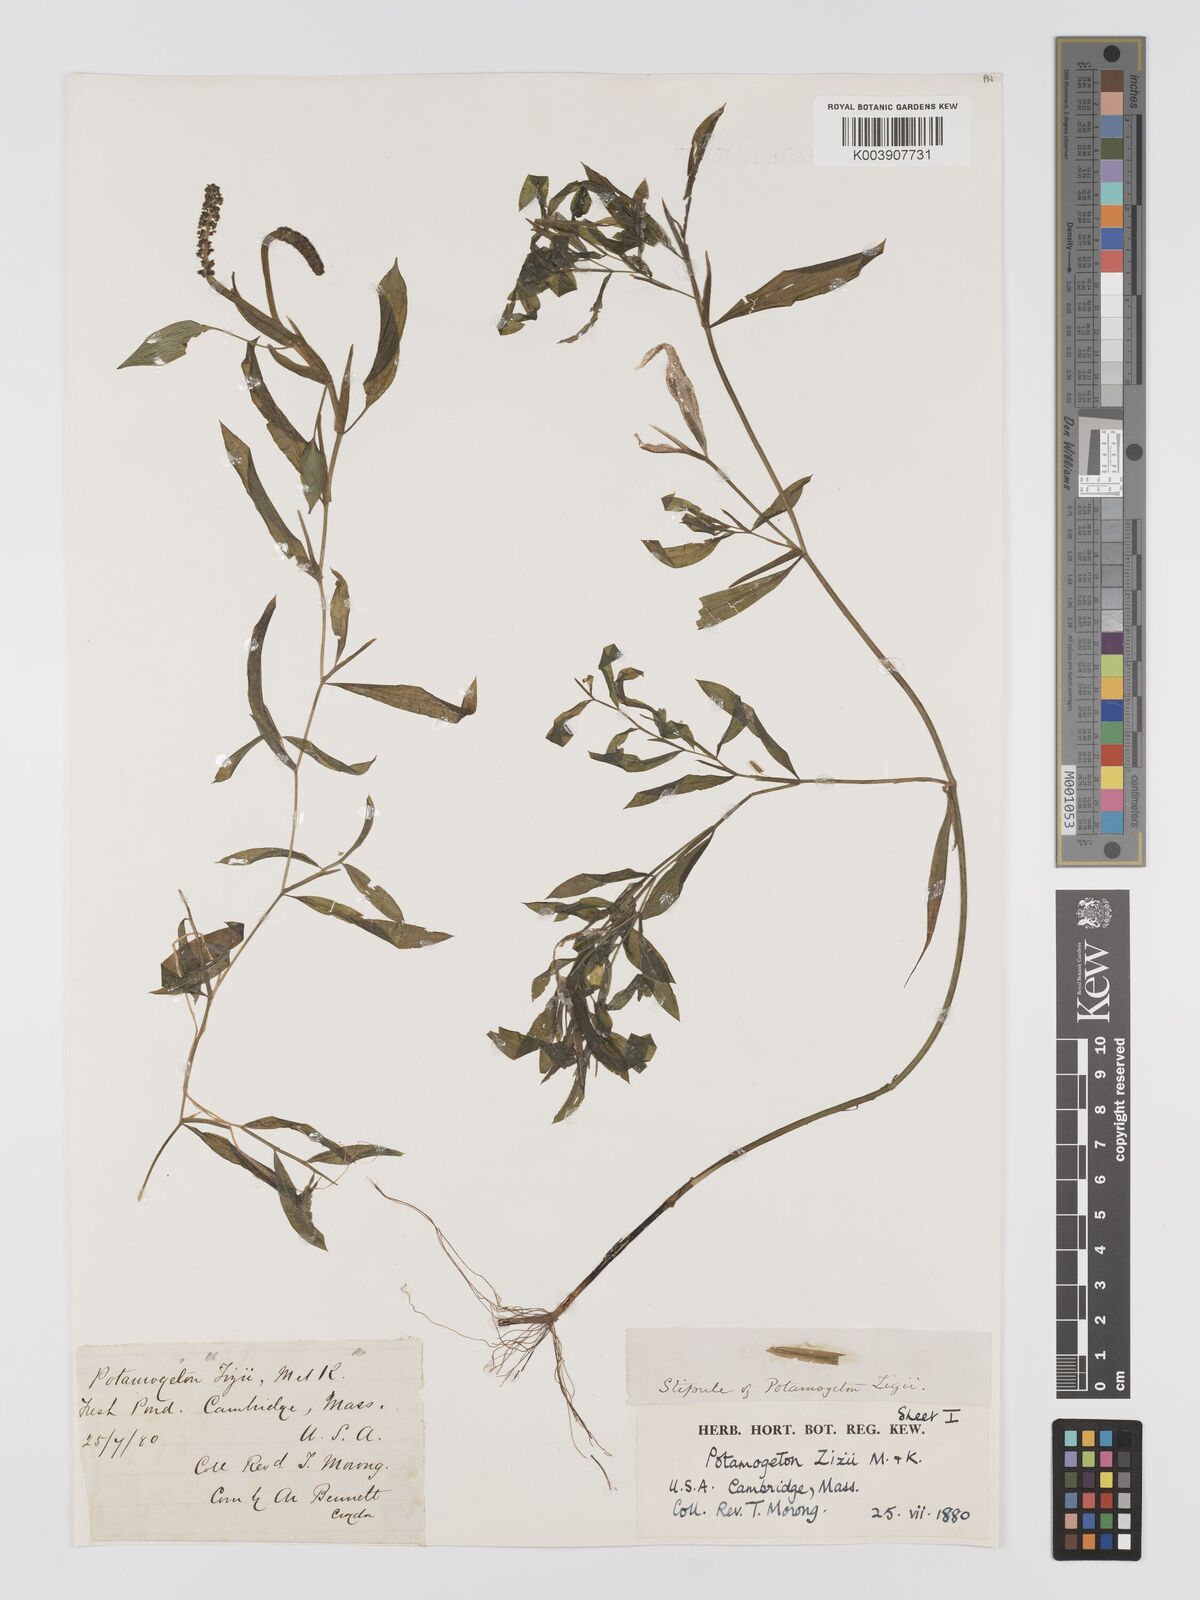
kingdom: Plantae
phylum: Tracheophyta
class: Liliopsida
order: Alismatales
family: Potamogetonaceae
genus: Potamogeton
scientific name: Potamogeton lucens
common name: Shining pondweed
